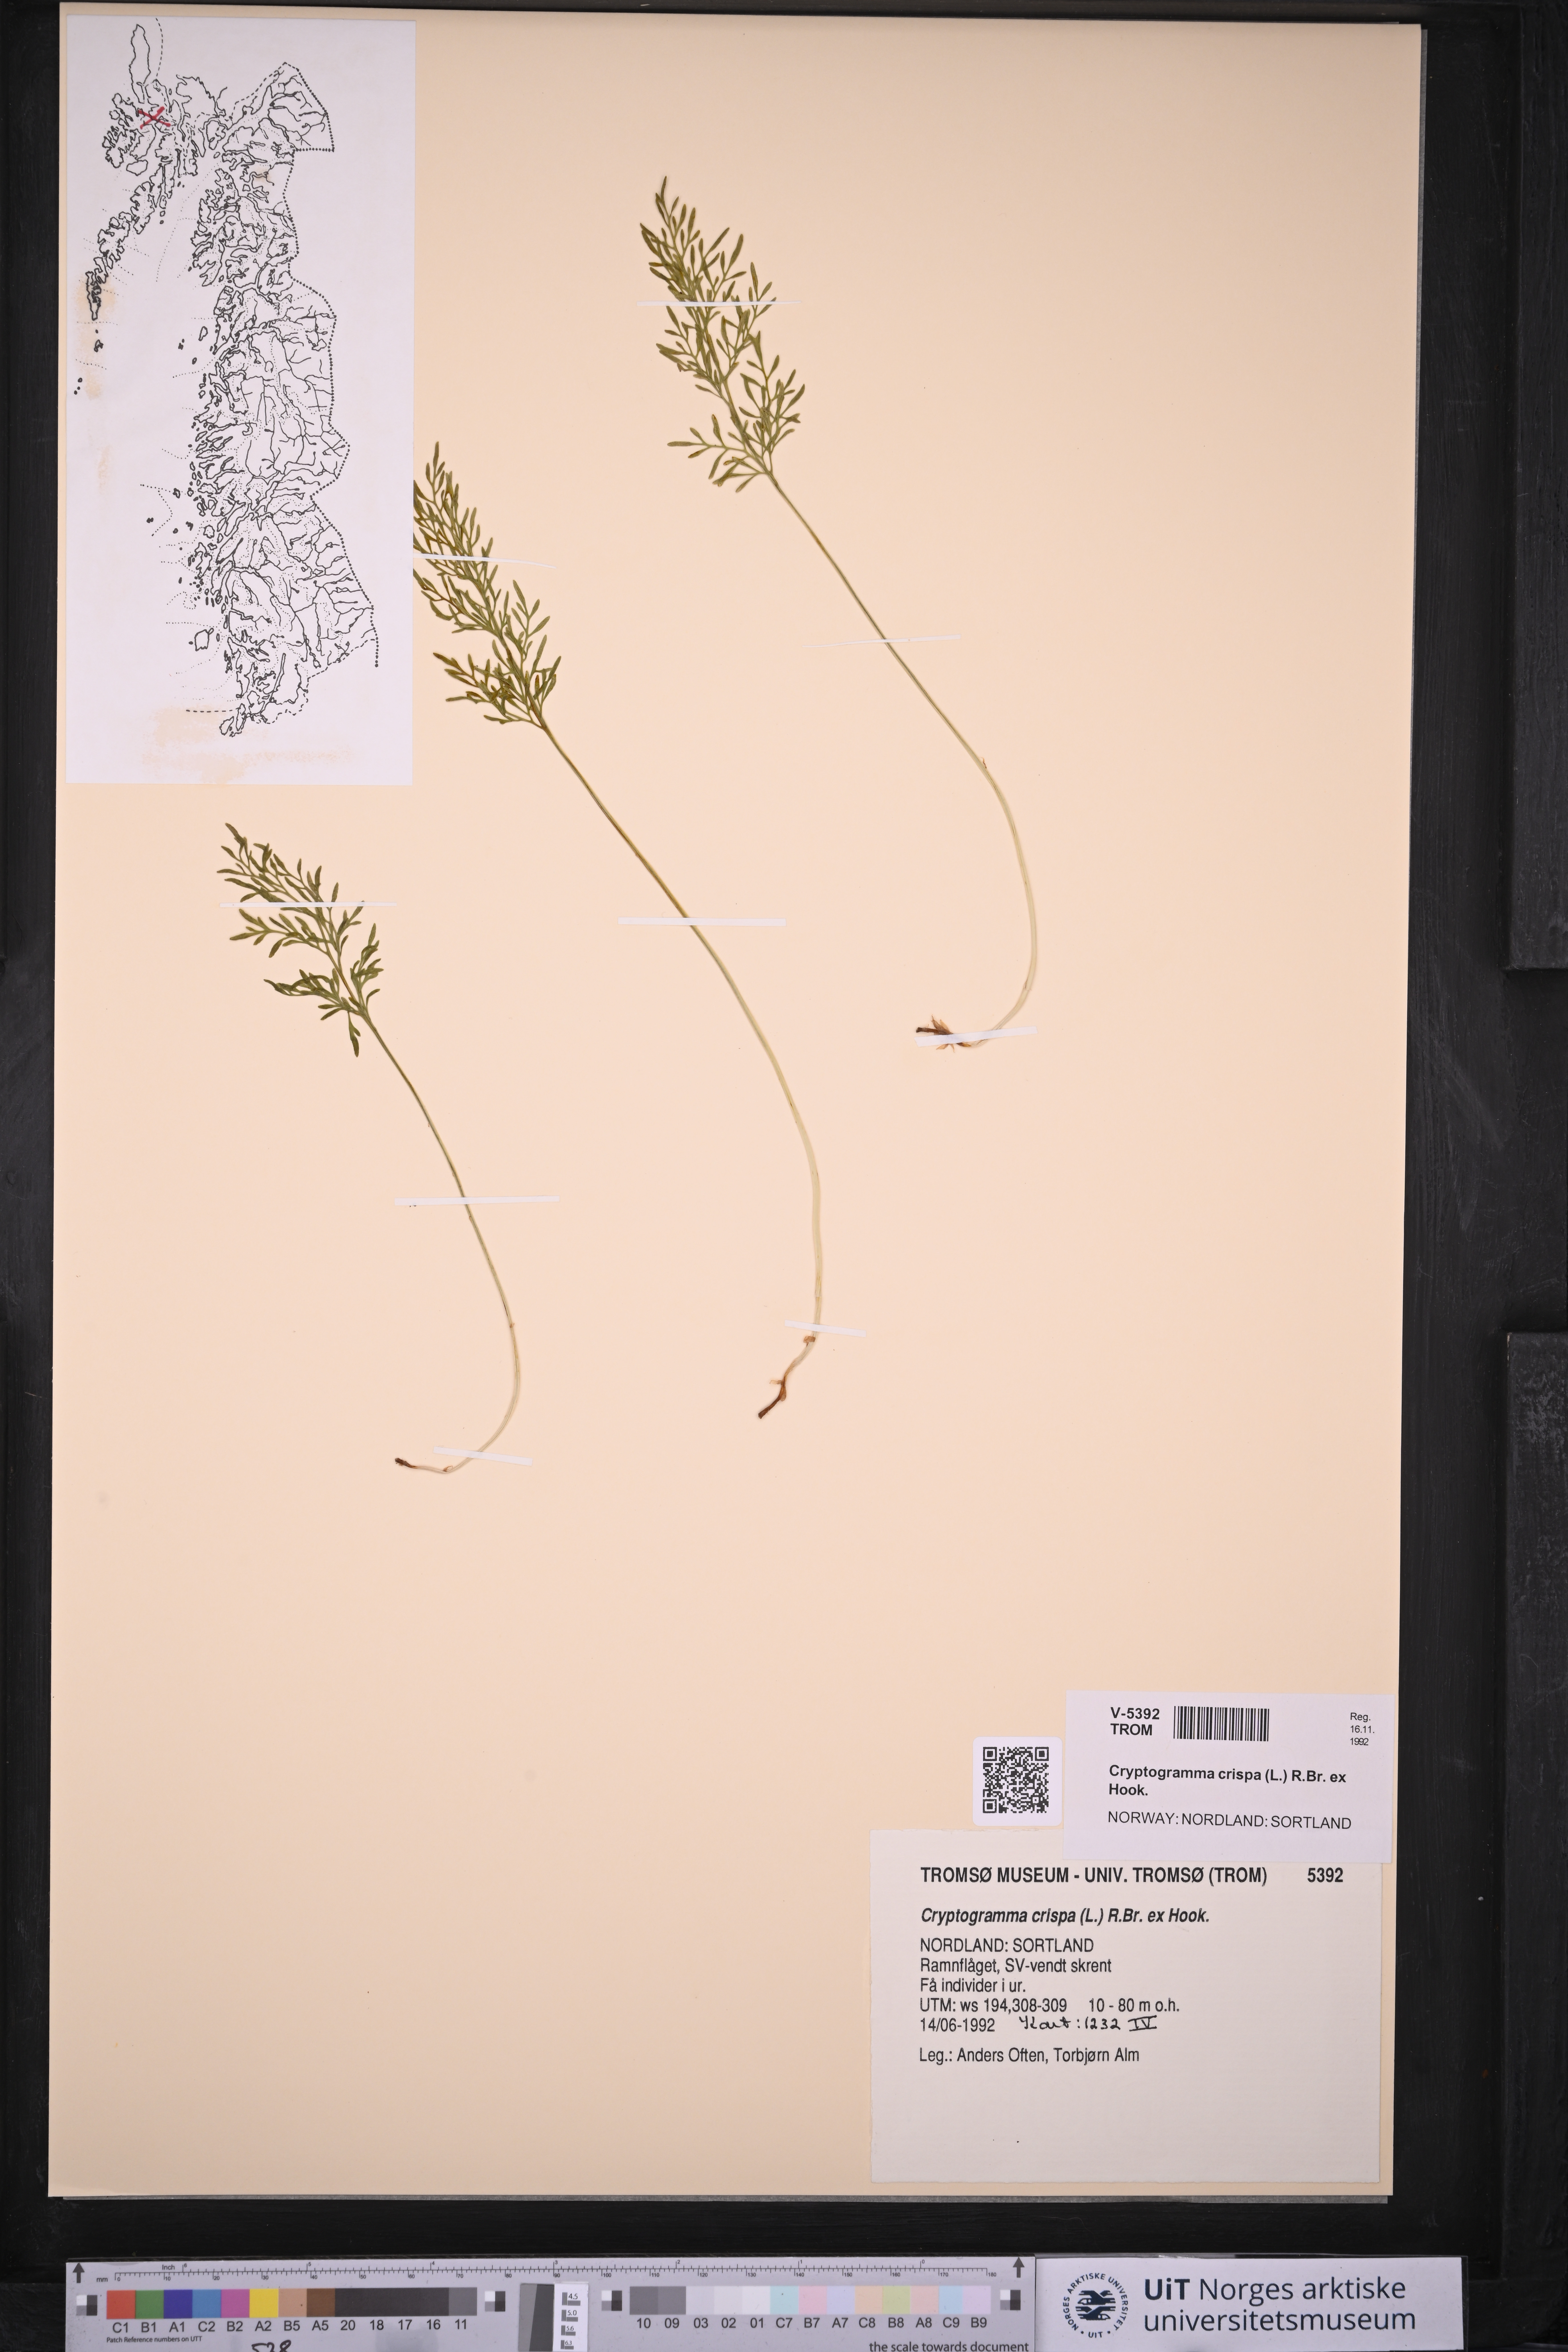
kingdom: Plantae
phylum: Tracheophyta
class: Polypodiopsida
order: Polypodiales
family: Pteridaceae
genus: Cryptogramma
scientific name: Cryptogramma crispa
